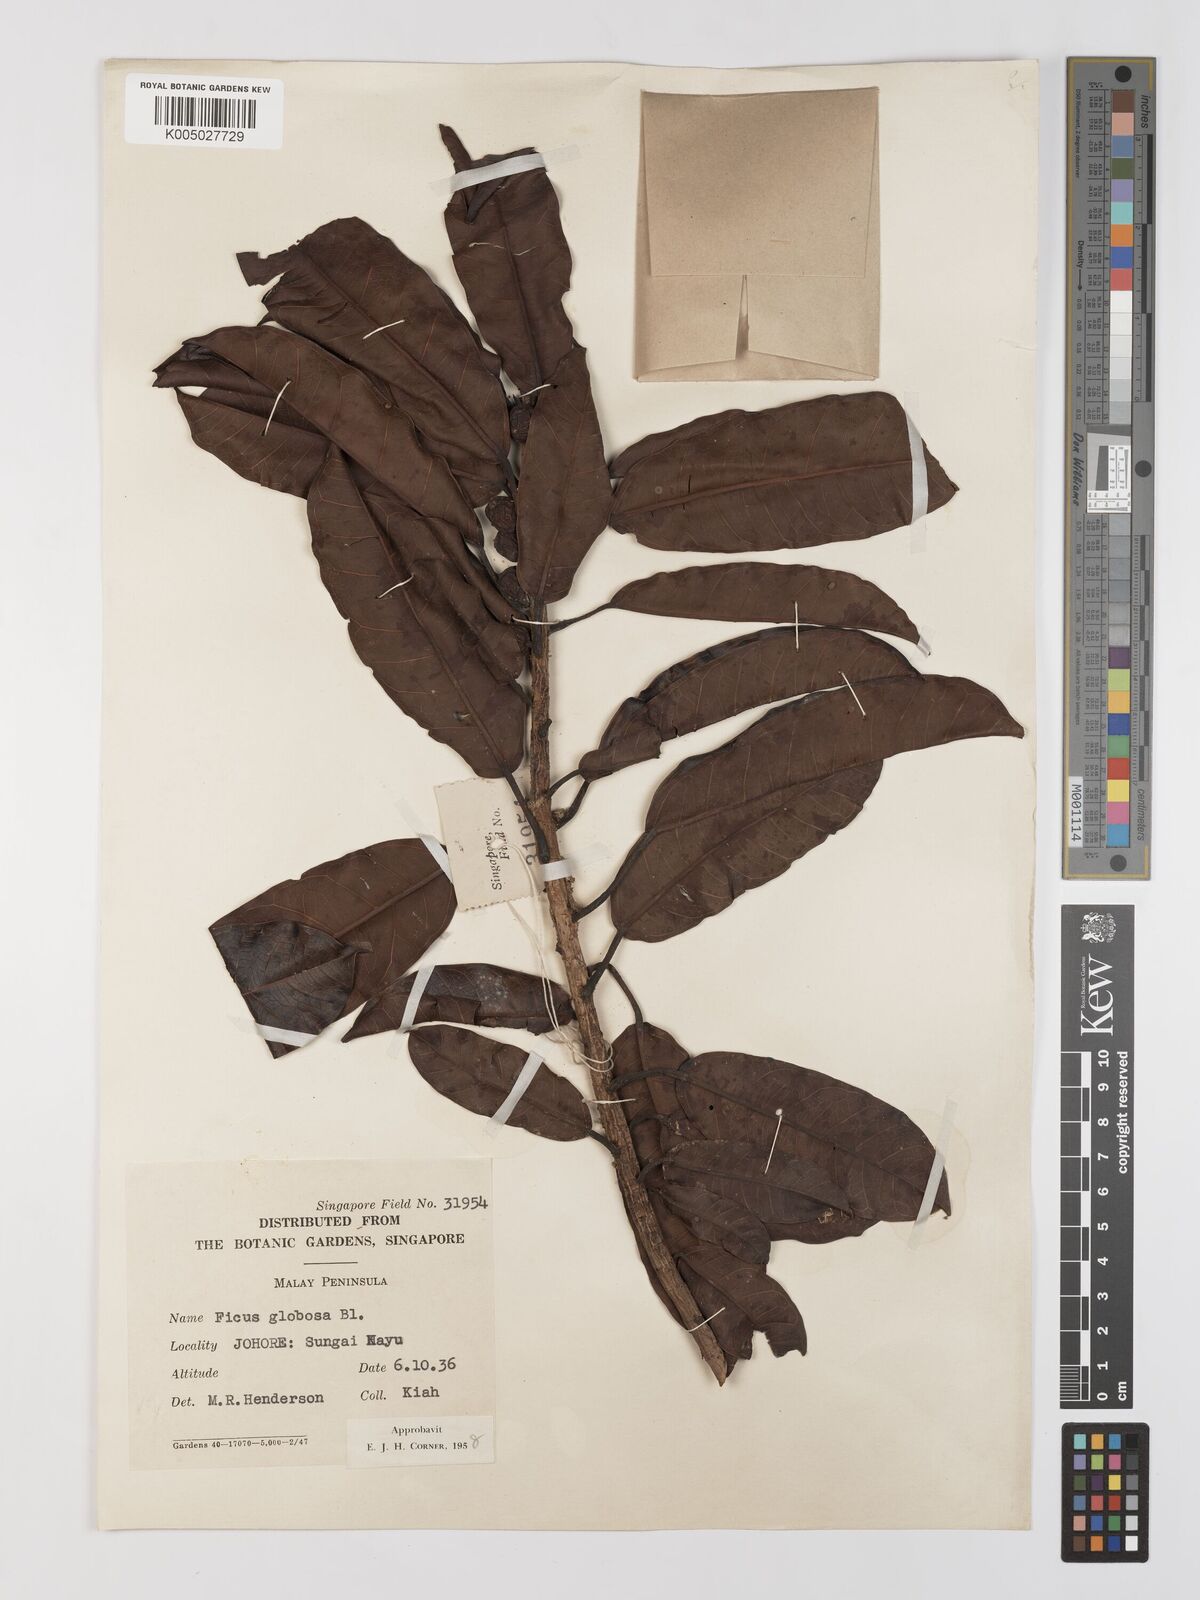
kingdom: Plantae
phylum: Tracheophyta
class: Magnoliopsida
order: Rosales
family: Moraceae
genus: Ficus
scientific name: Ficus
